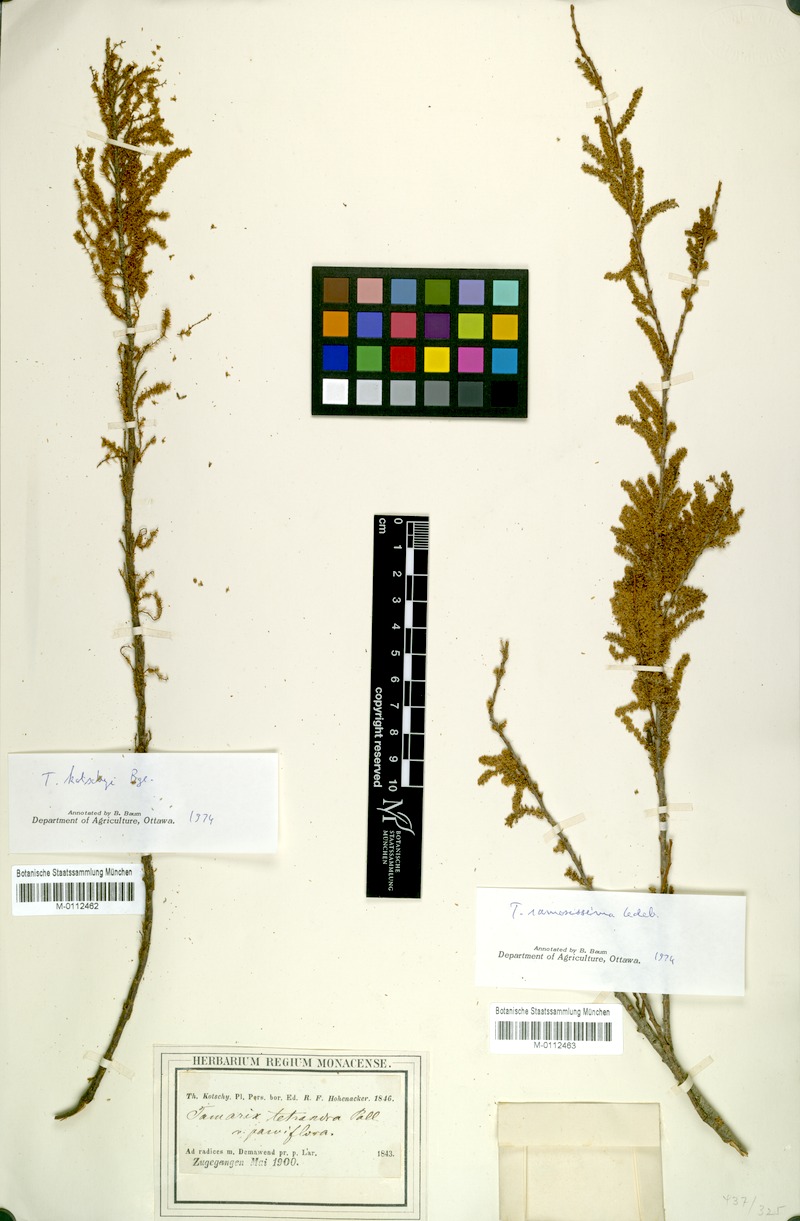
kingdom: Plantae
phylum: Tracheophyta
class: Magnoliopsida
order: Caryophyllales
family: Tamaricaceae
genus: Tamarix
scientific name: Tamarix kotschyi
